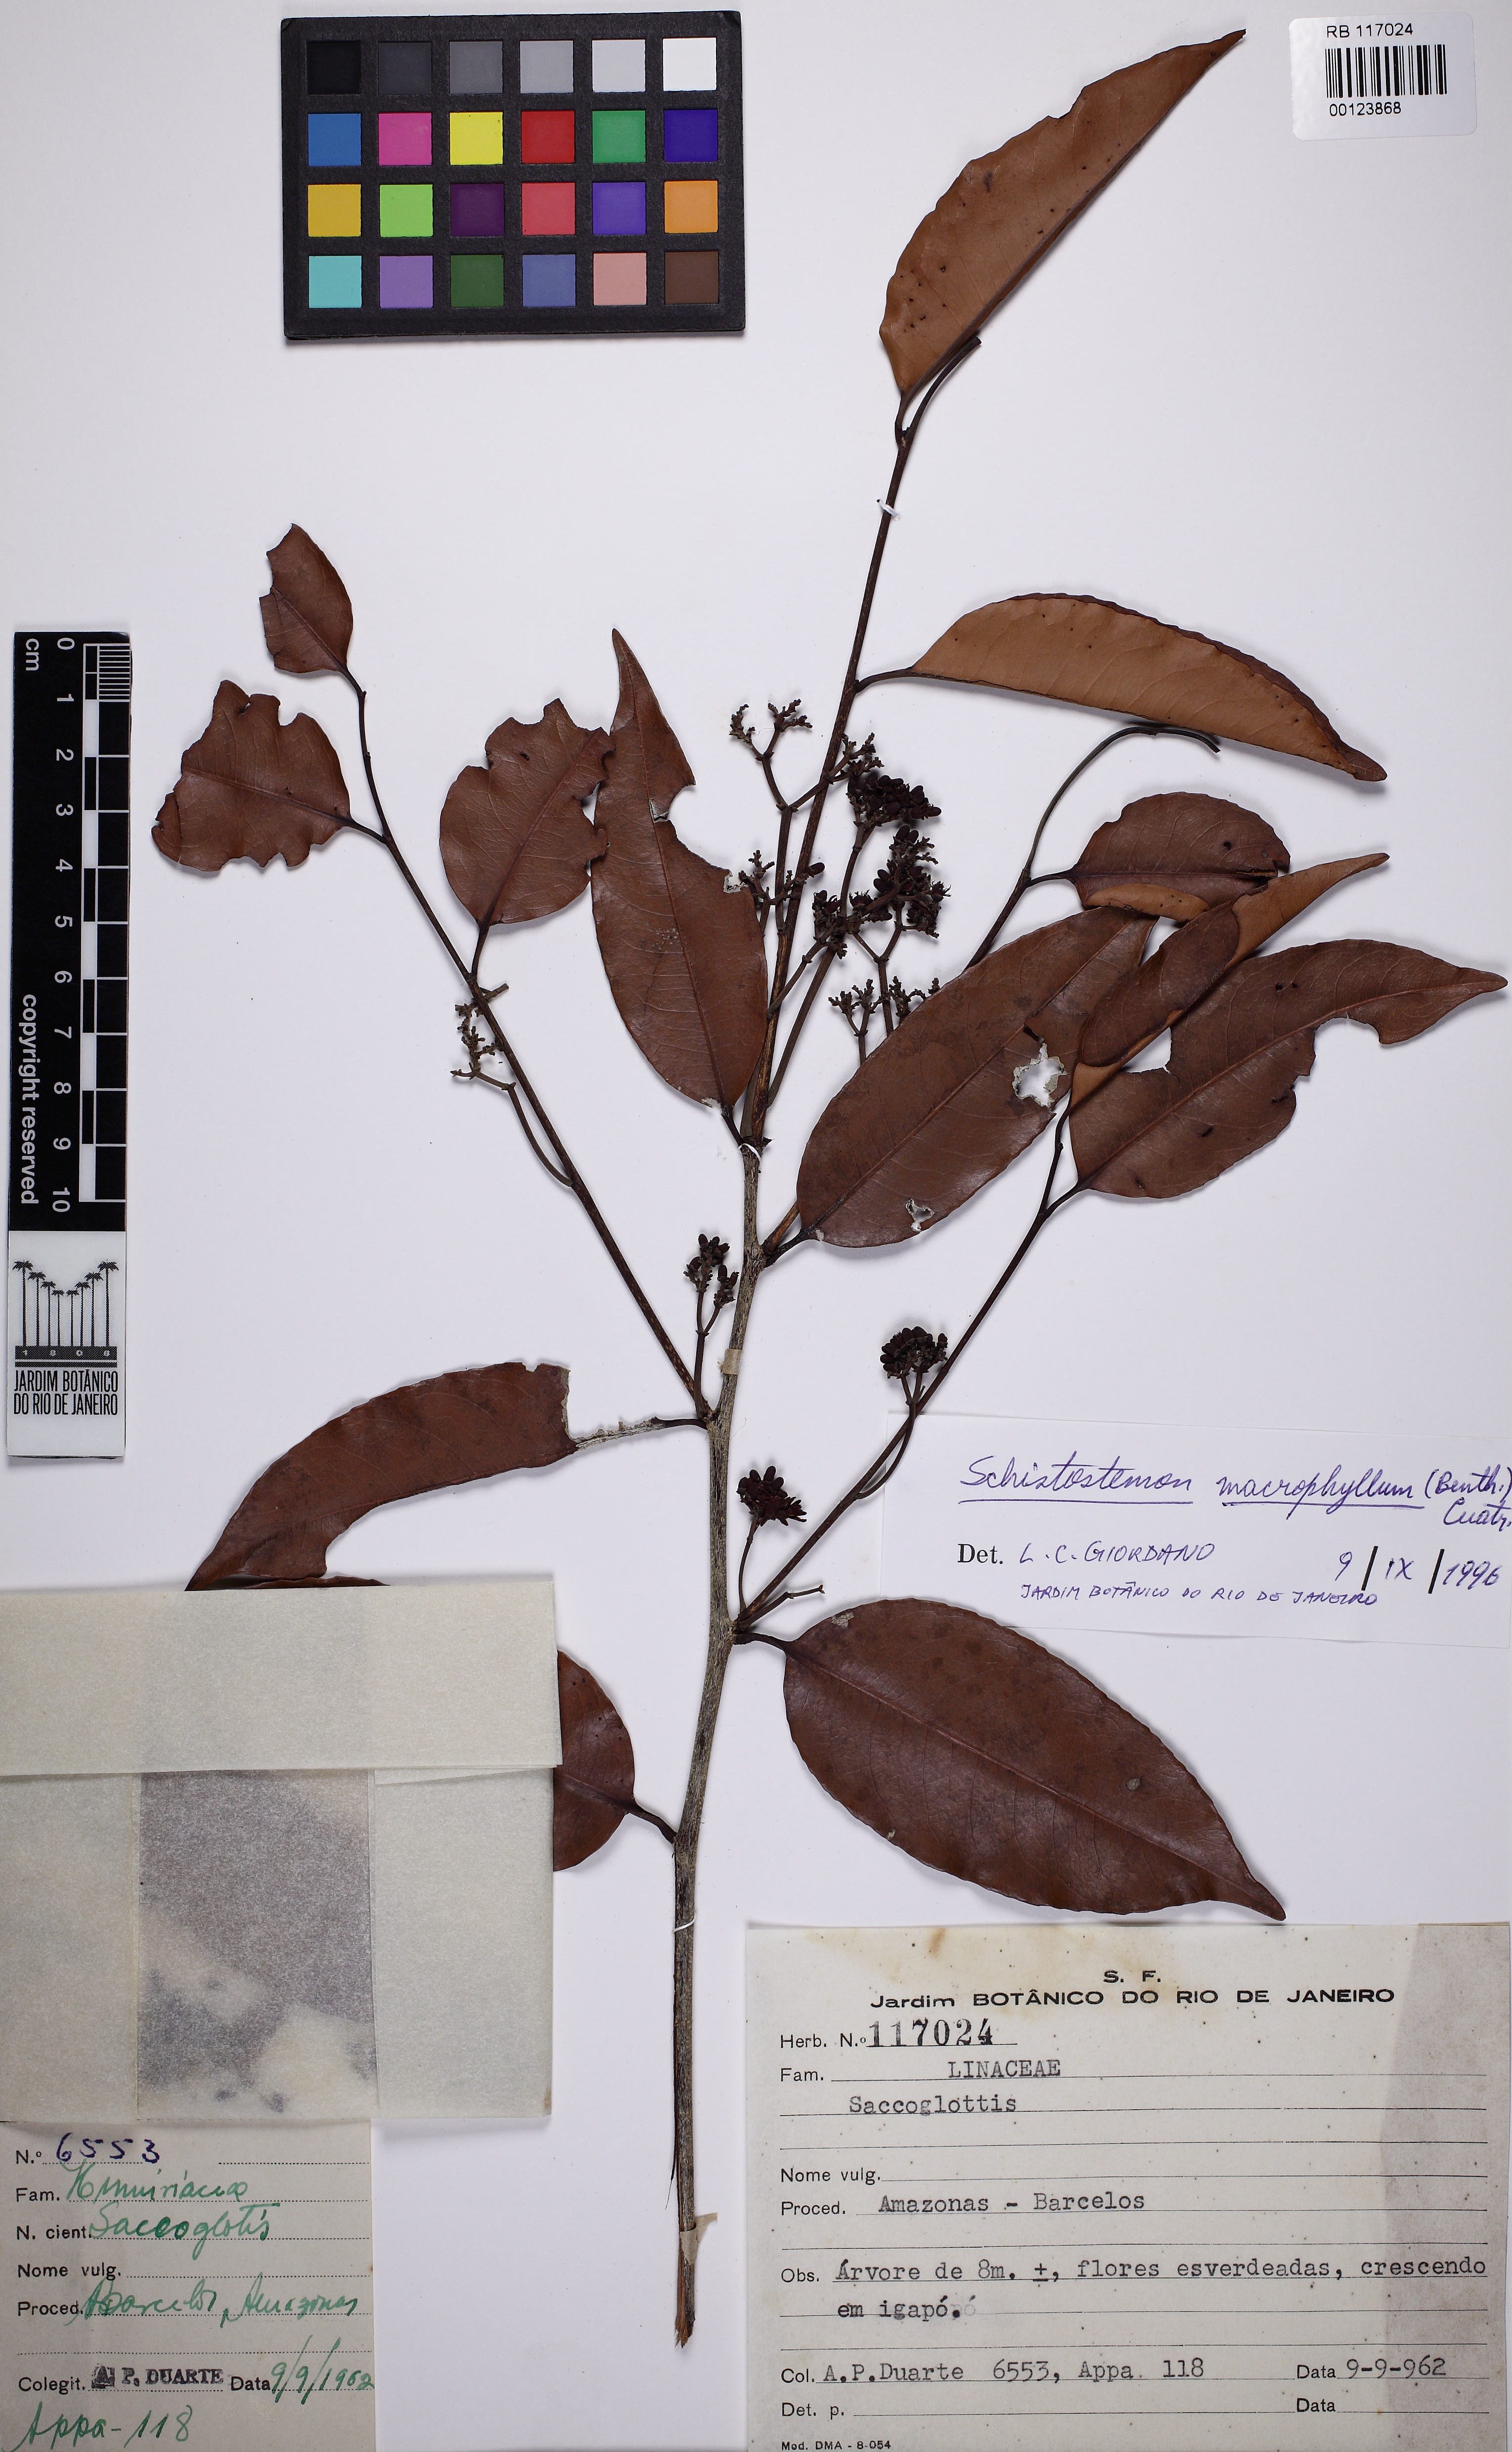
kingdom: Plantae
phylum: Tracheophyta
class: Magnoliopsida
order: Malpighiales
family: Humiriaceae
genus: Sacoglottis
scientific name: Sacoglottis guianensis
